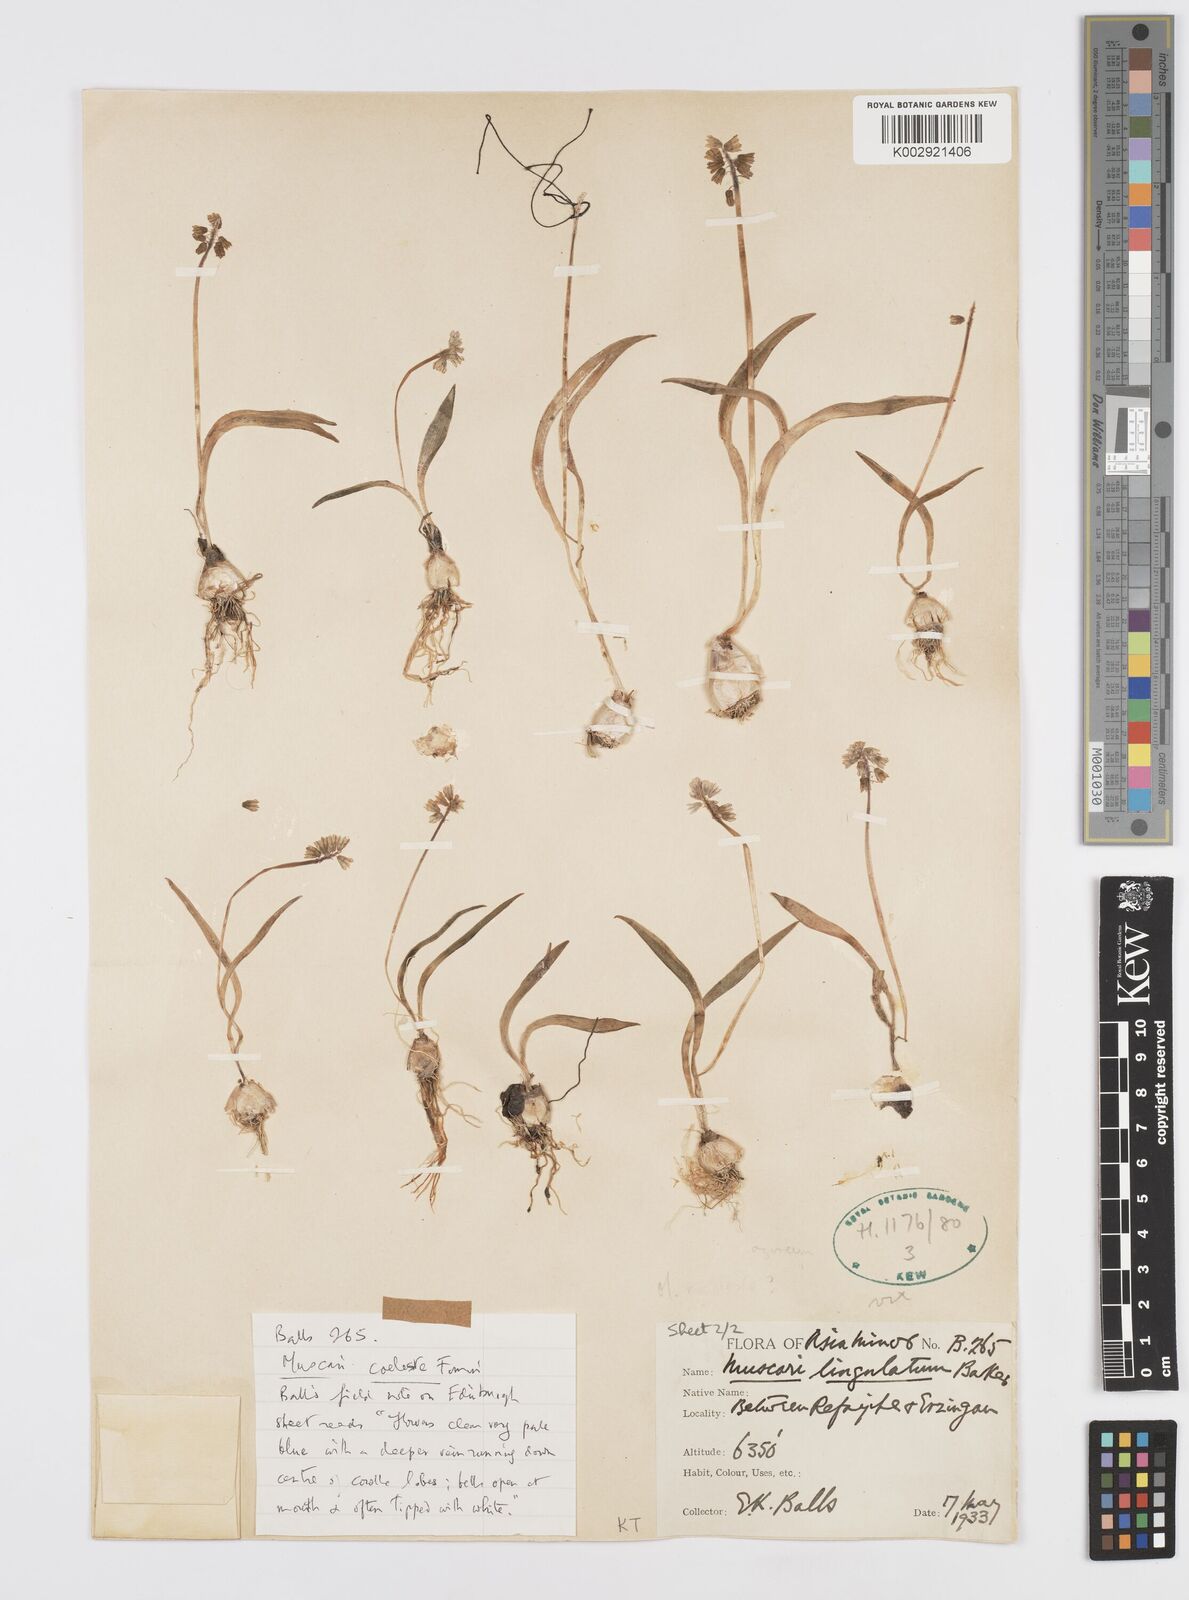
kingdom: Plantae
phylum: Tracheophyta
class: Liliopsida
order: Asparagales
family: Asparagaceae
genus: Muscari
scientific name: Muscari coeleste
